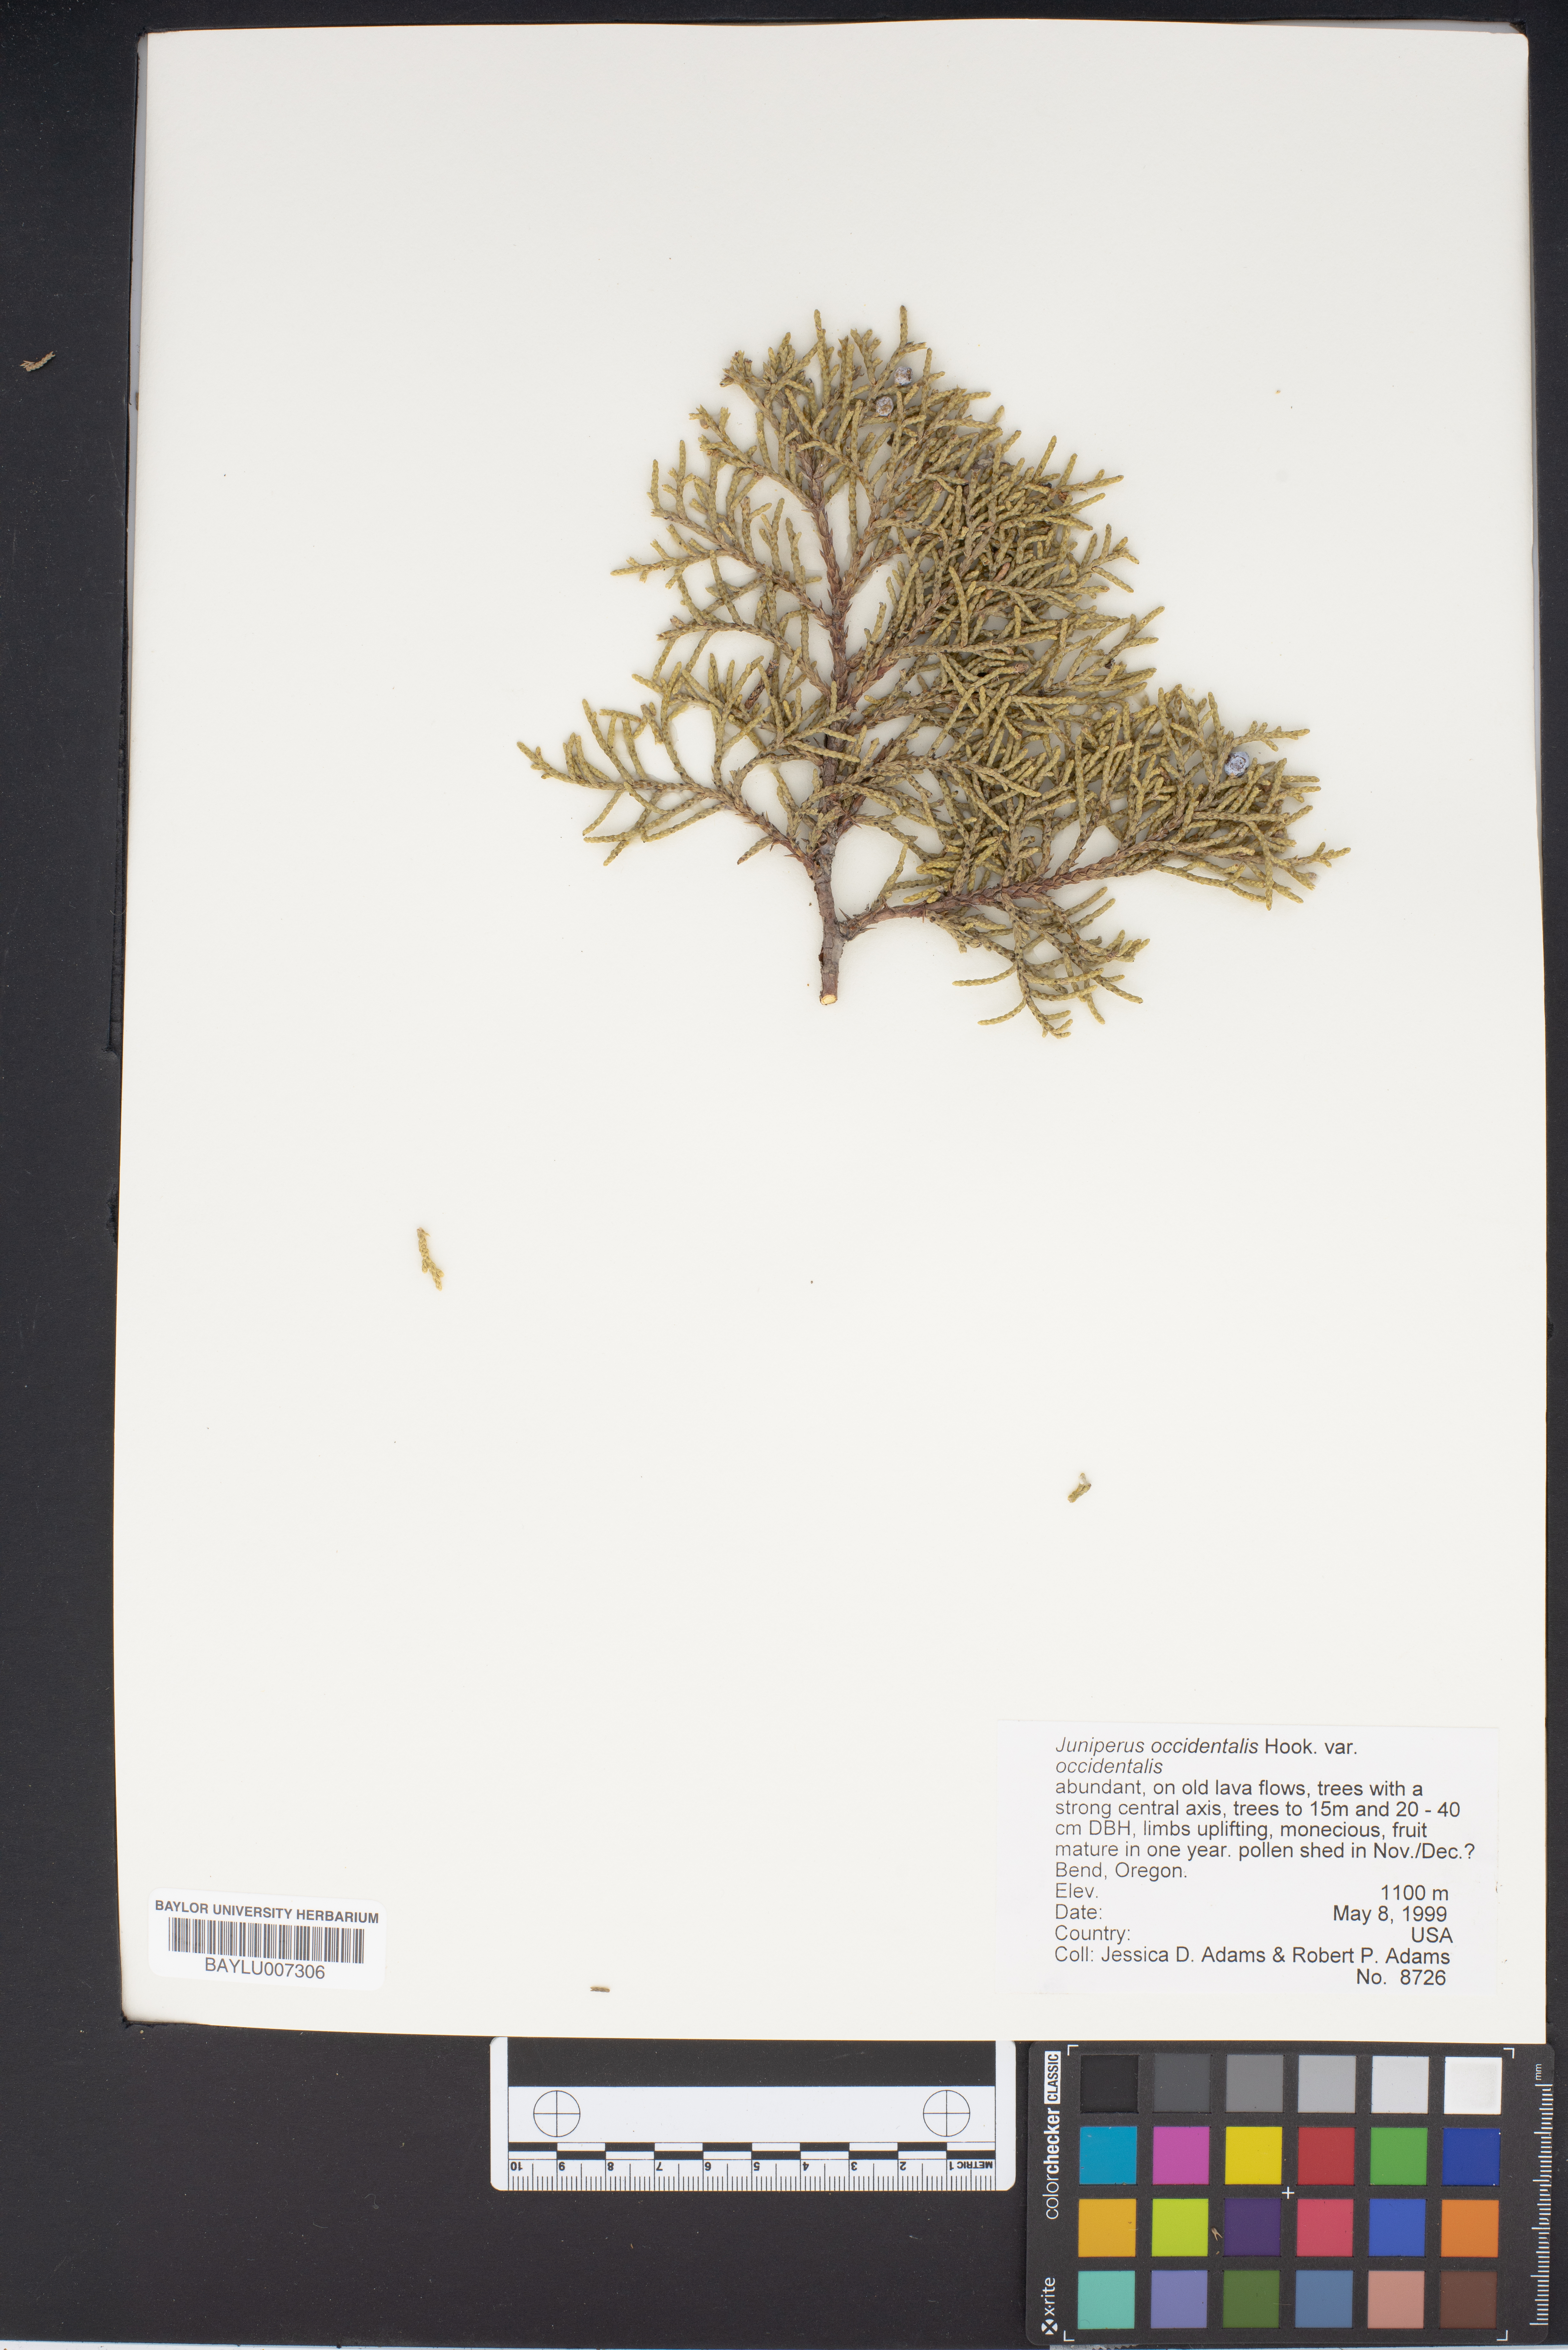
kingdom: Plantae
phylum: Tracheophyta
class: Pinopsida
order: Pinales
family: Cupressaceae
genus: Juniperus
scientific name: Juniperus occidentalis
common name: Western juniper
